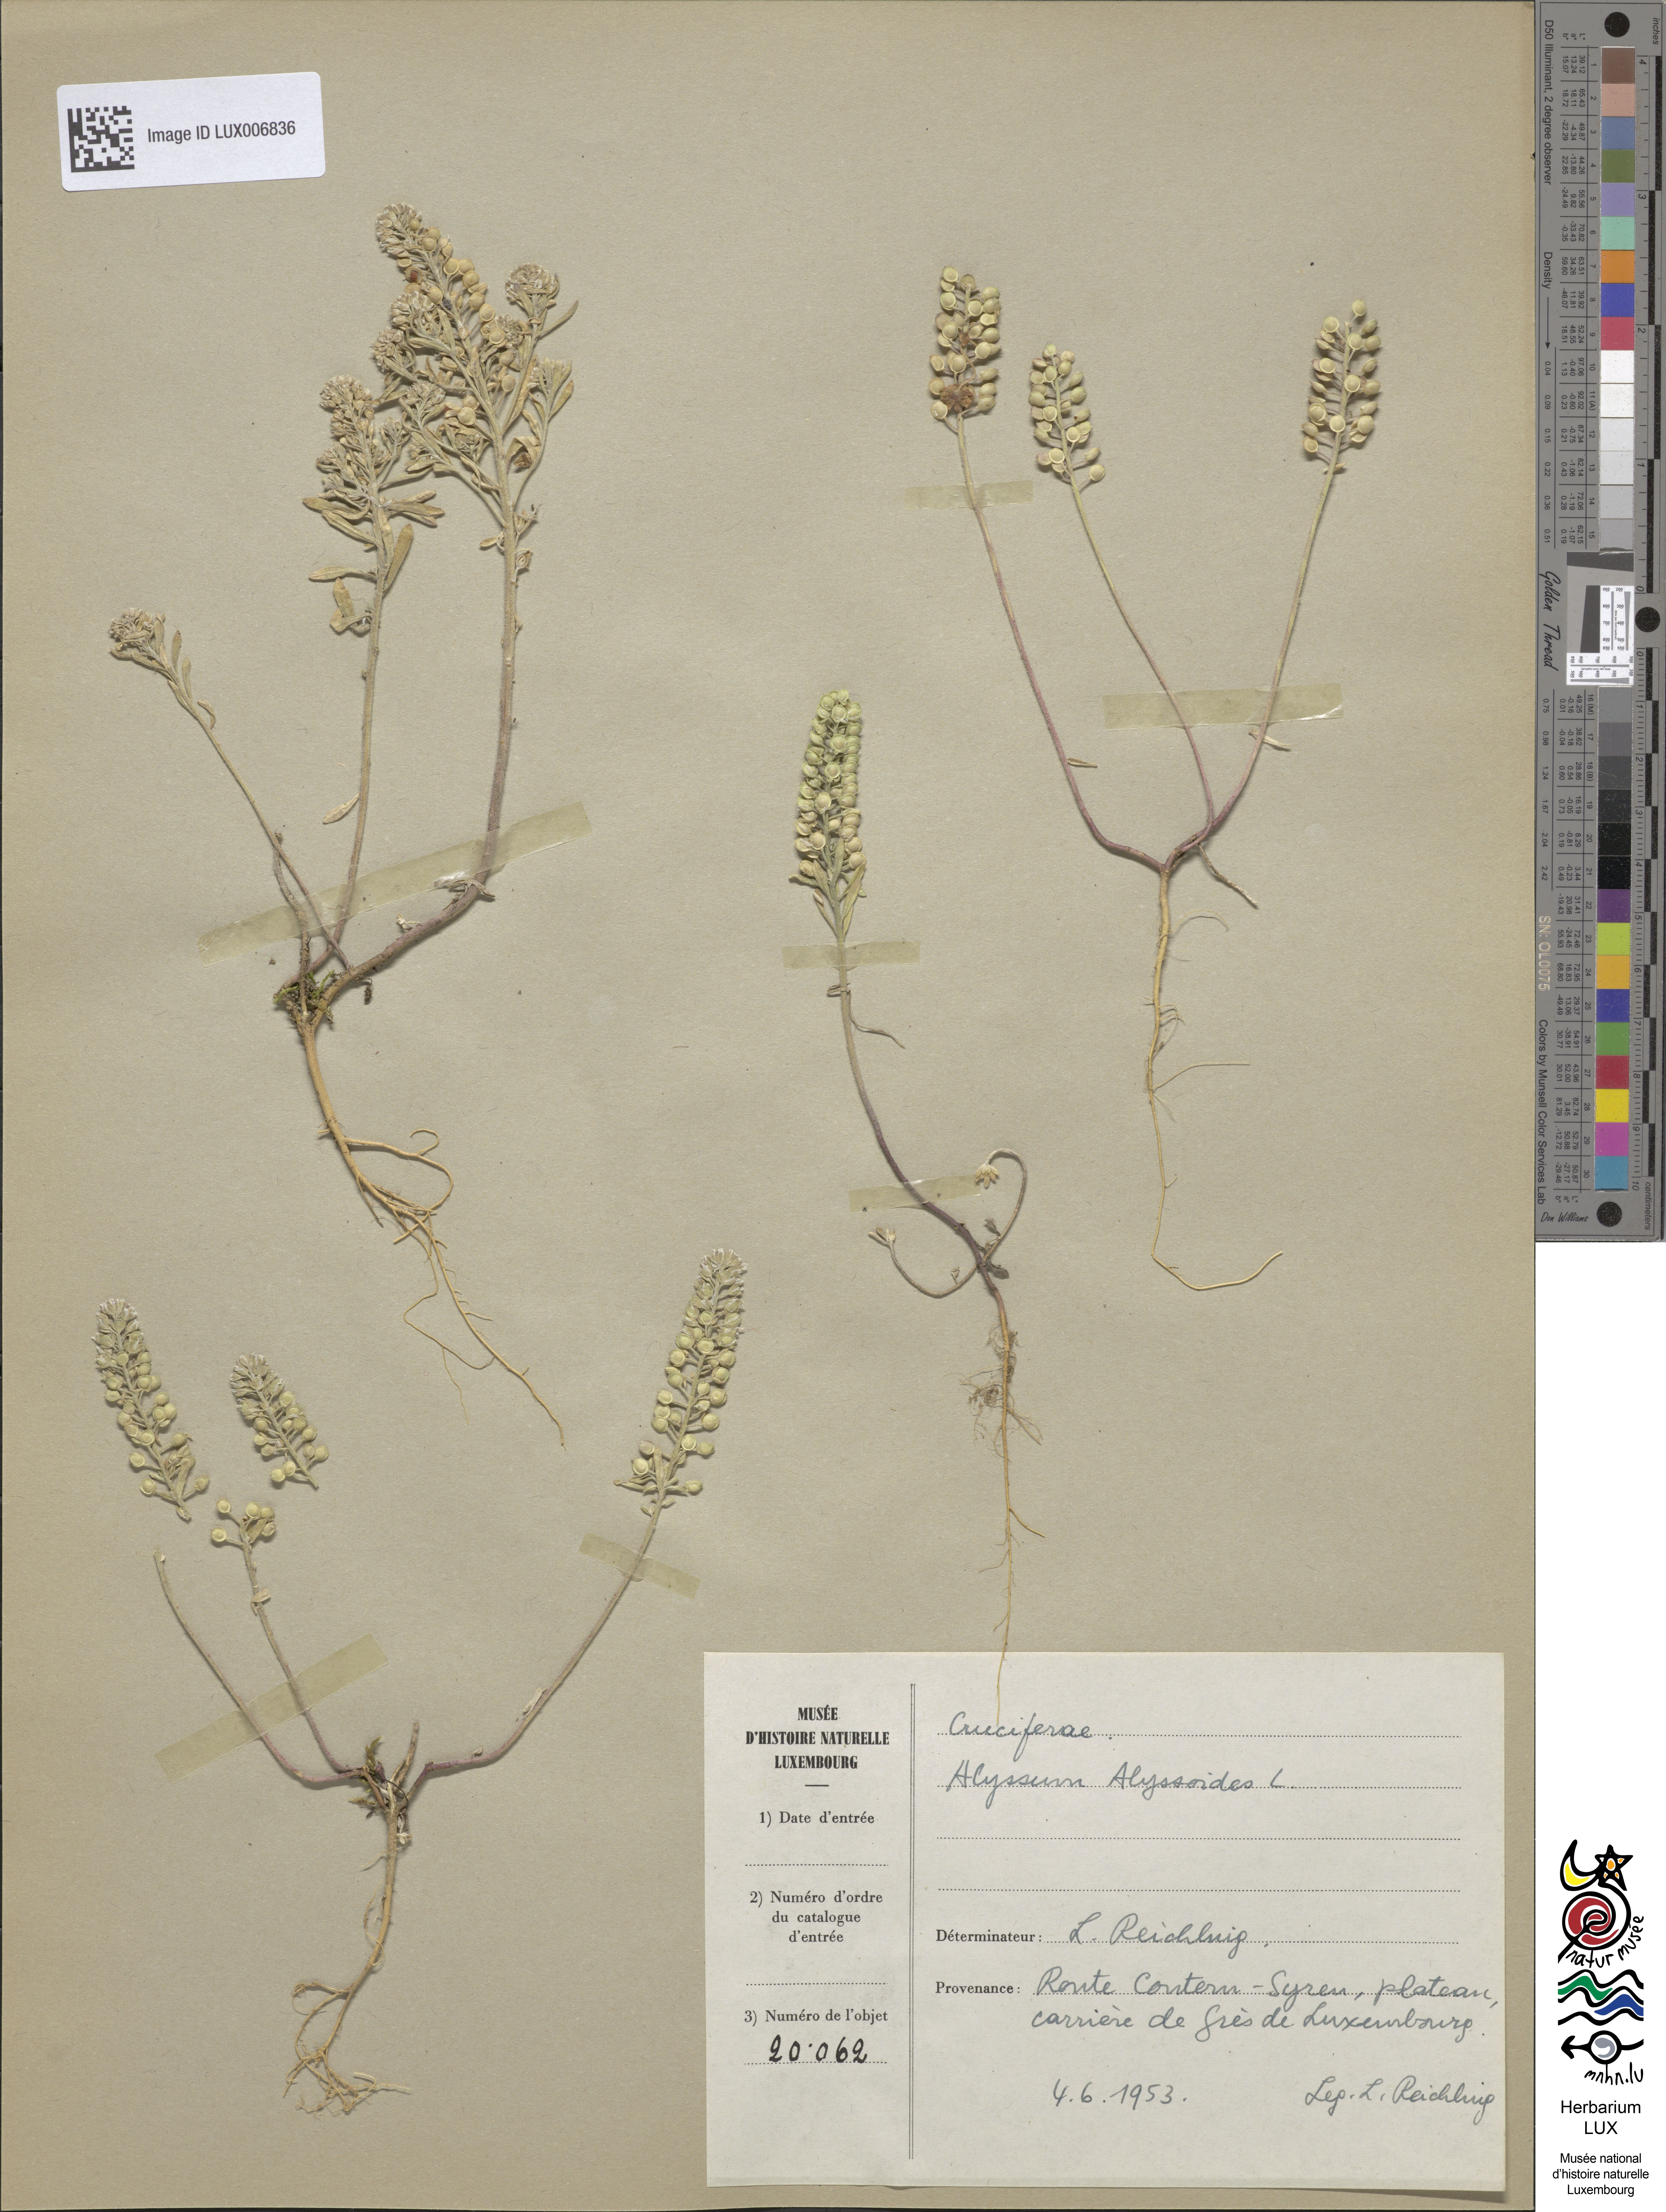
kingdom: Plantae
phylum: Tracheophyta
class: Magnoliopsida
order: Brassicales
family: Brassicaceae
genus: Alyssum
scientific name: Alyssum alyssoides
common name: Small alison
